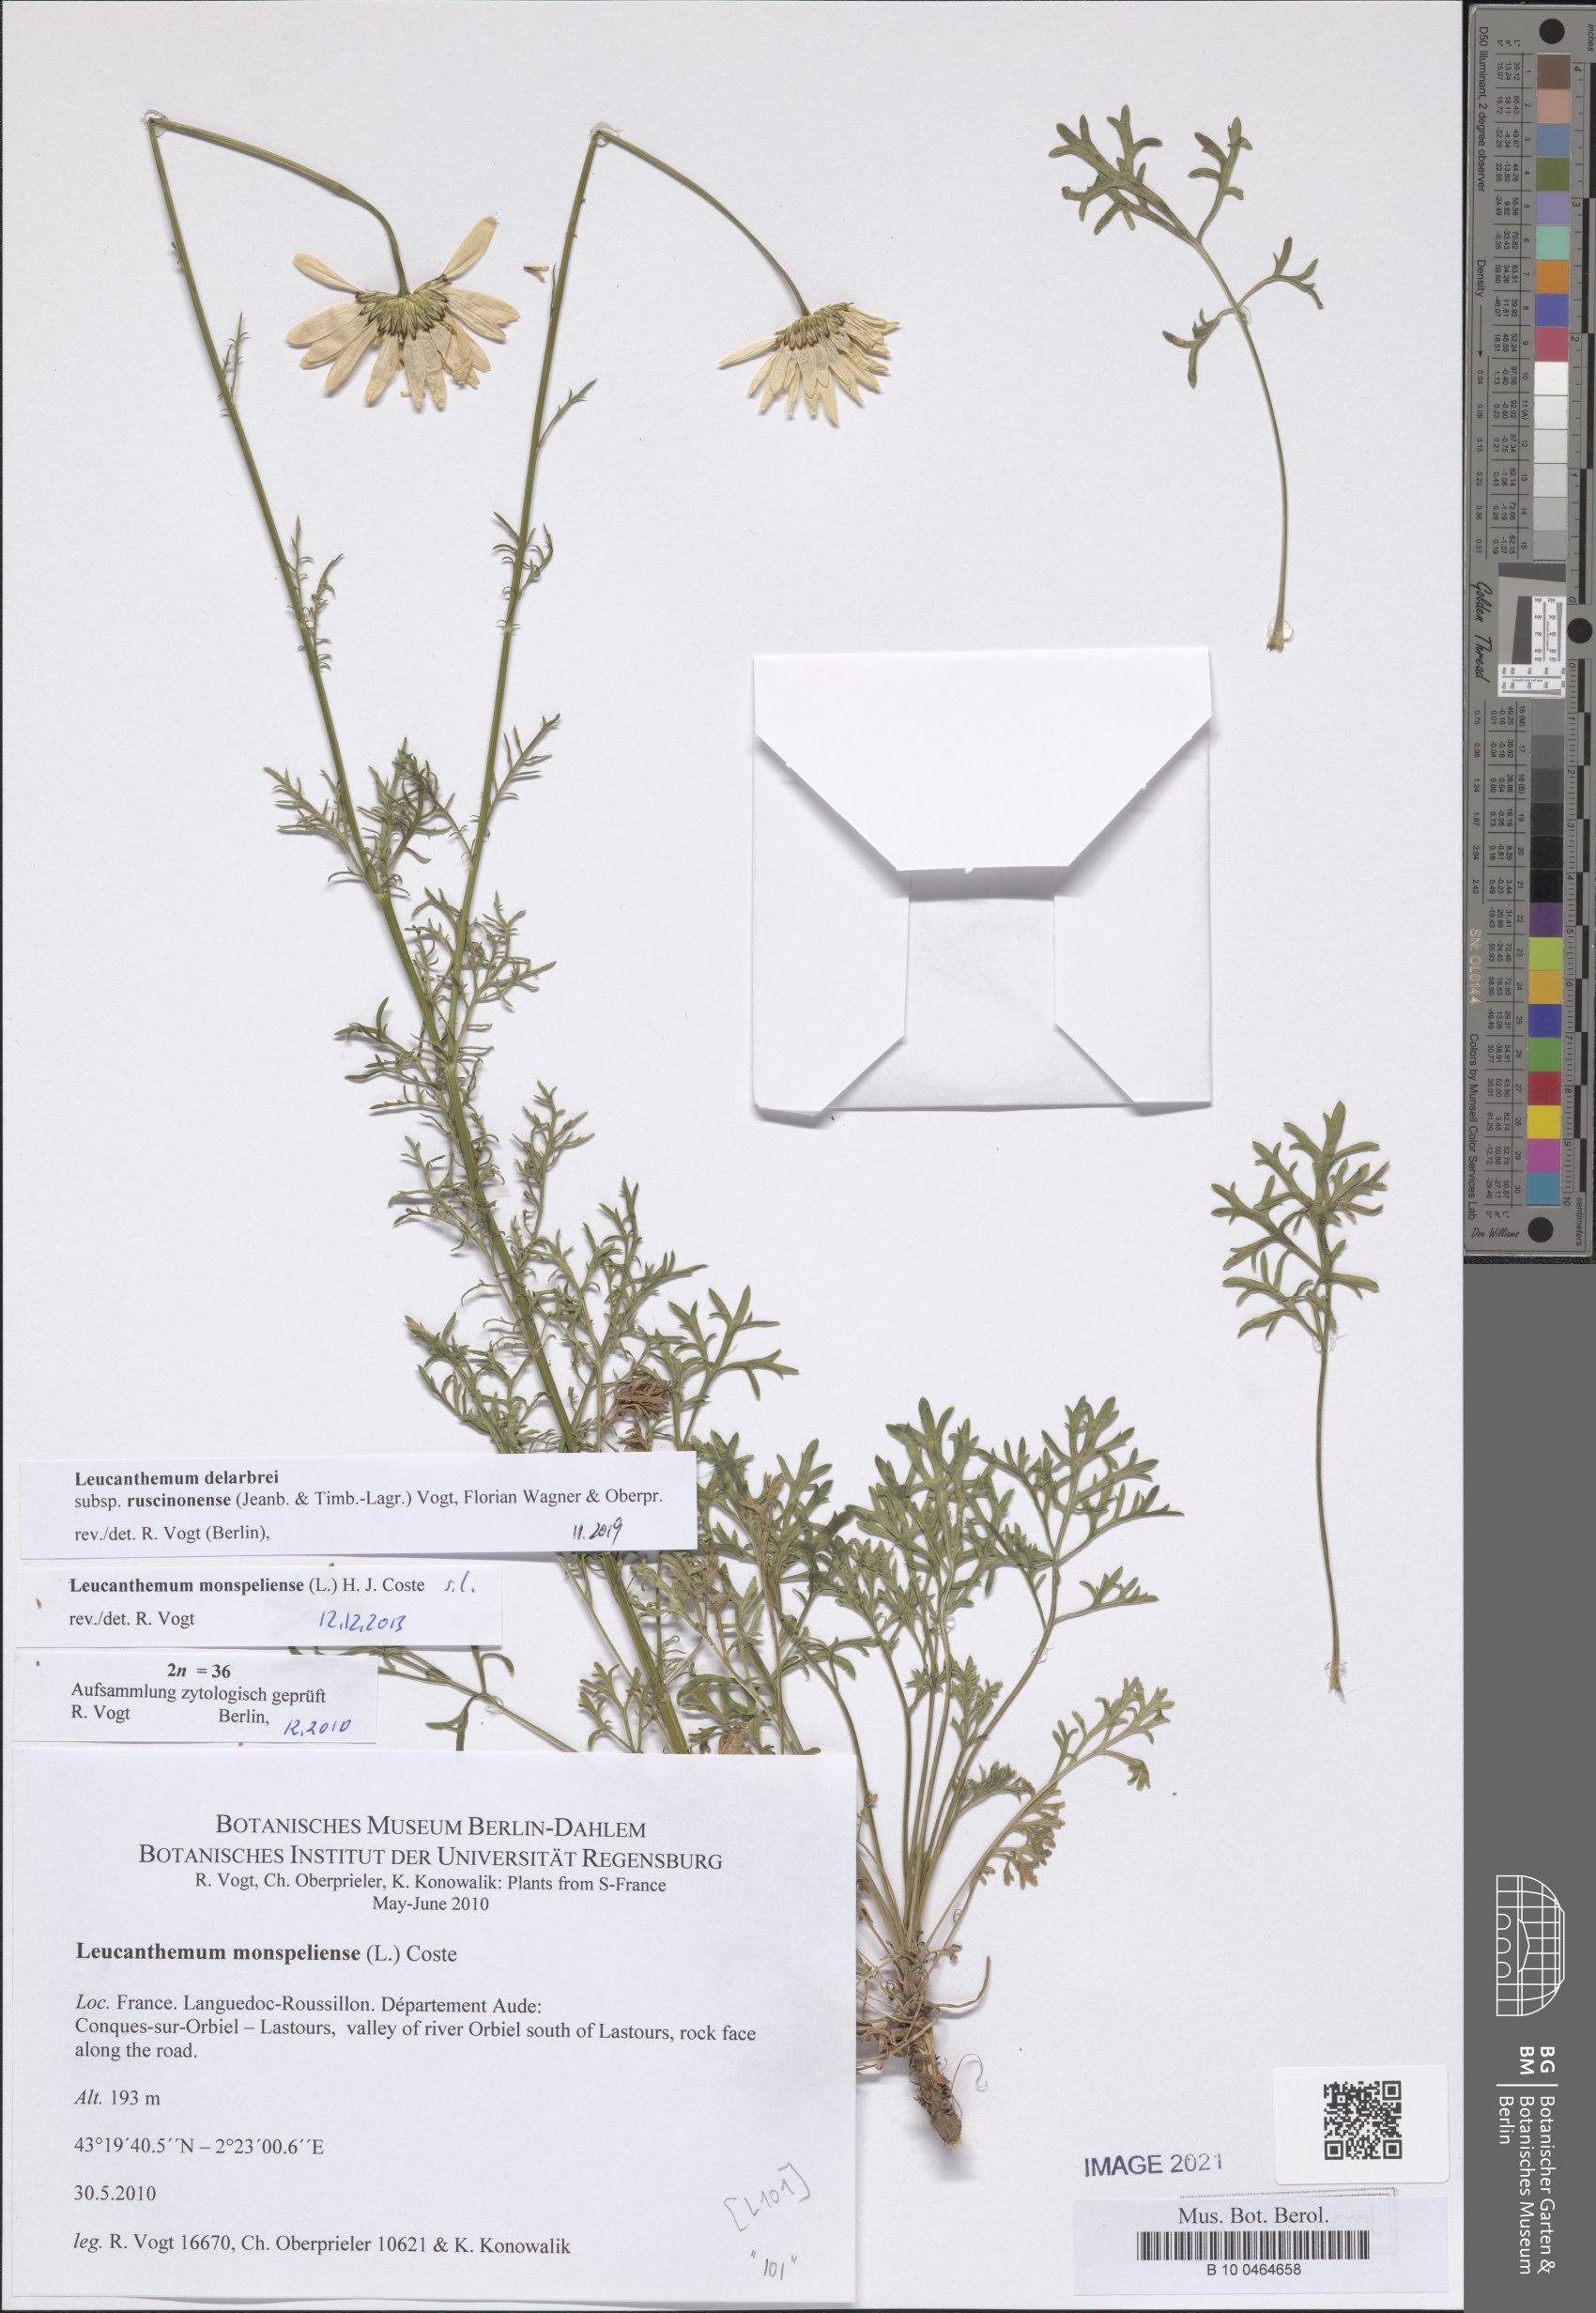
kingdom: Plantae
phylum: Tracheophyta
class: Magnoliopsida
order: Asterales
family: Asteraceae
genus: Leucanthemum
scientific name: Leucanthemum delarbrei
